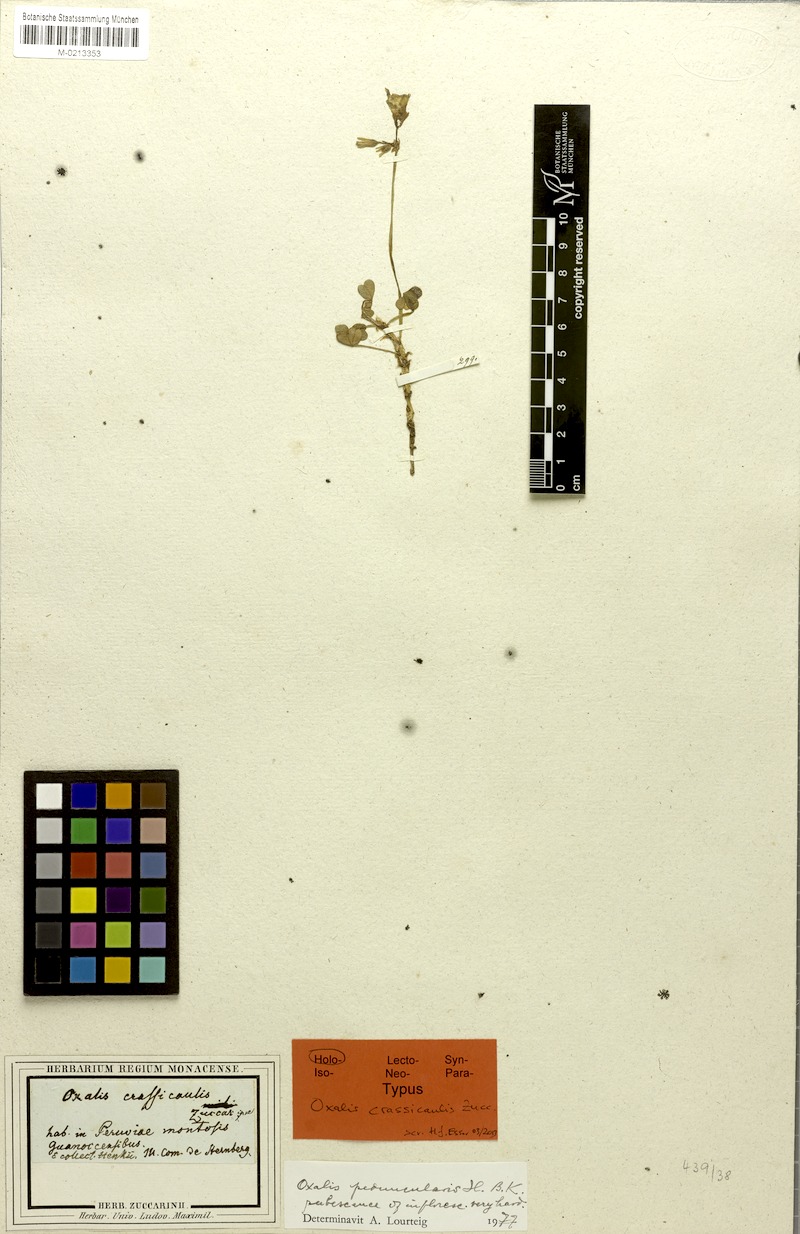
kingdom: Plantae
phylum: Tracheophyta
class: Magnoliopsida
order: Oxalidales
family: Oxalidaceae
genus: Oxalis
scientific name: Oxalis peduncularis
